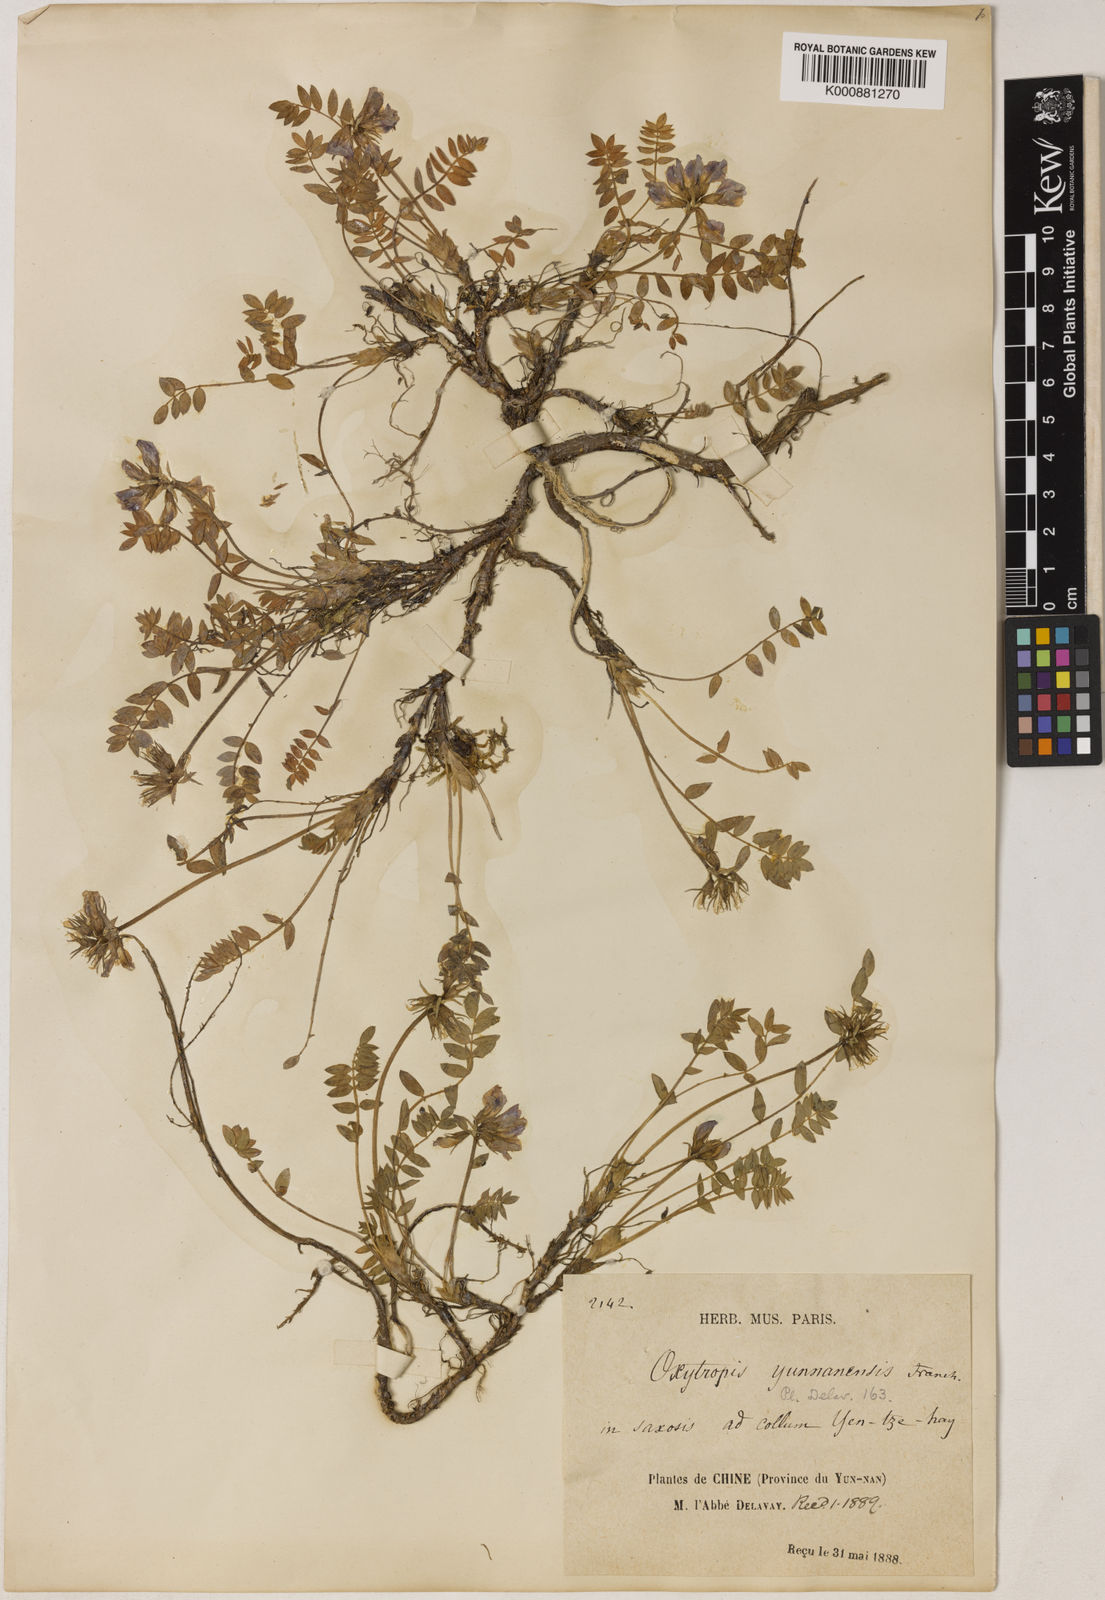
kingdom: Plantae
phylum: Tracheophyta
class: Magnoliopsida
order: Fabales
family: Fabaceae
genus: Oxytropis
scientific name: Oxytropis yunnanensis
